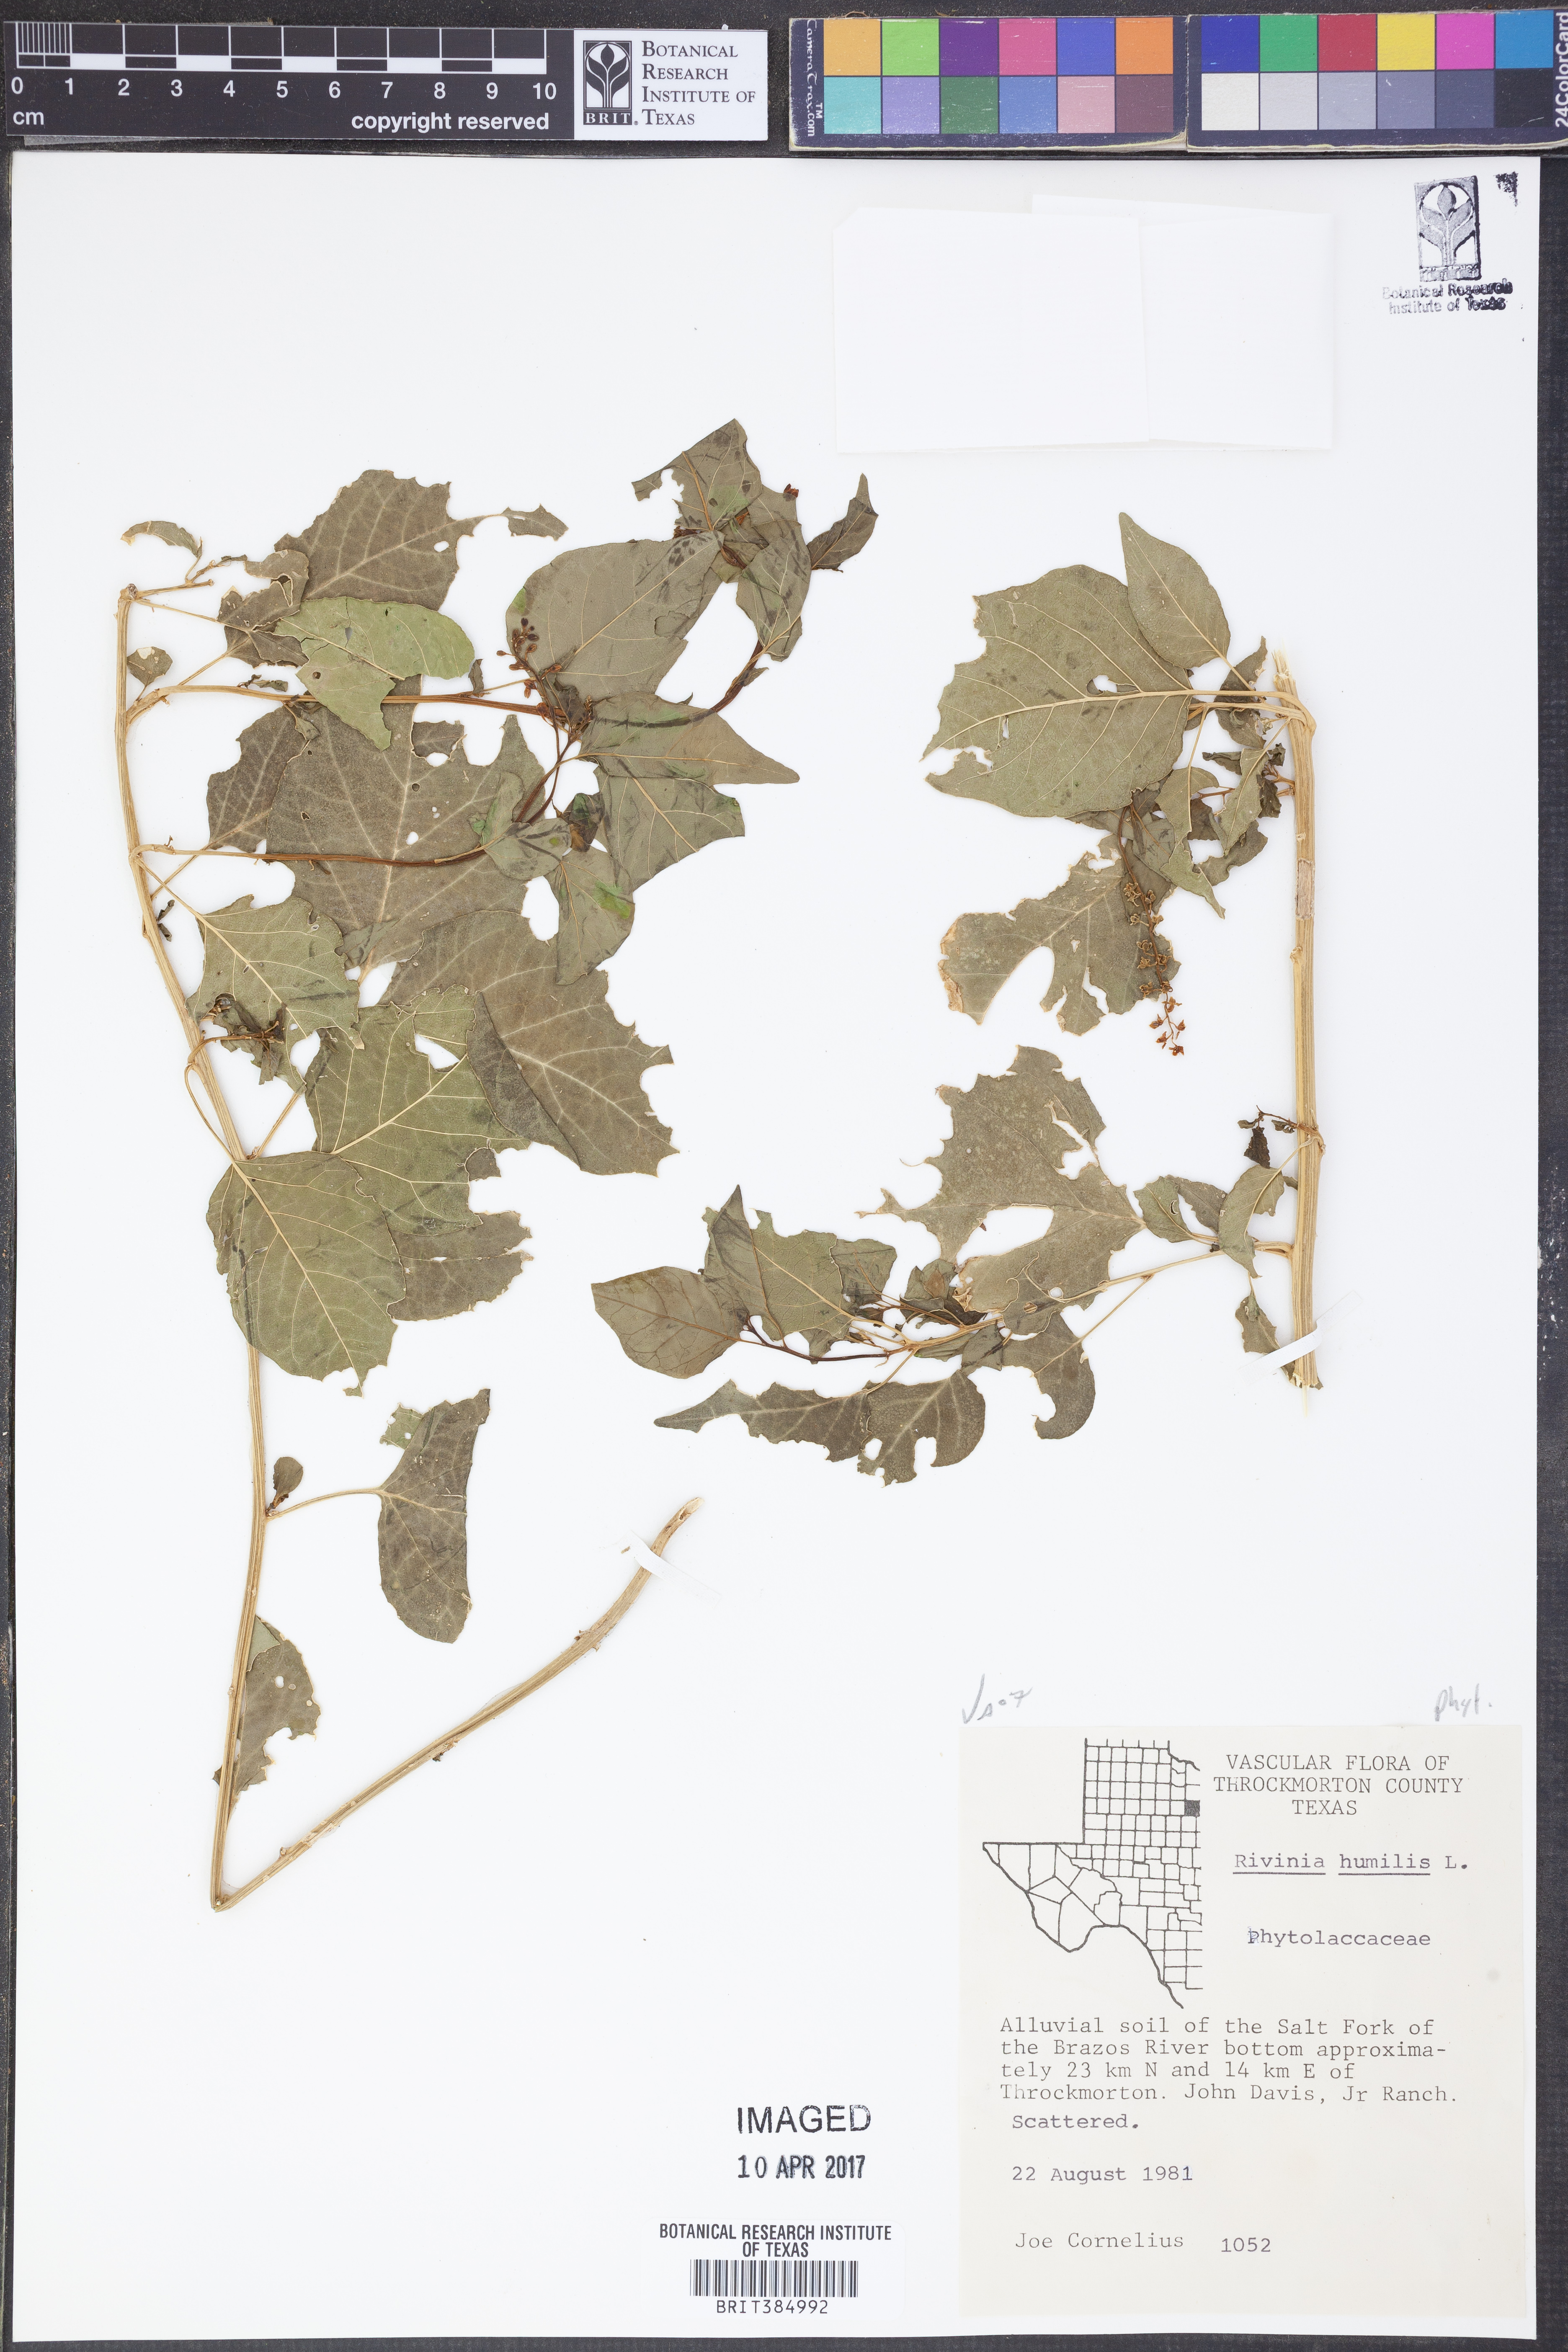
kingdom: Plantae
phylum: Tracheophyta
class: Magnoliopsida
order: Caryophyllales
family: Phytolaccaceae
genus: Rivina
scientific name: Rivina humilis
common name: Rougeplant
